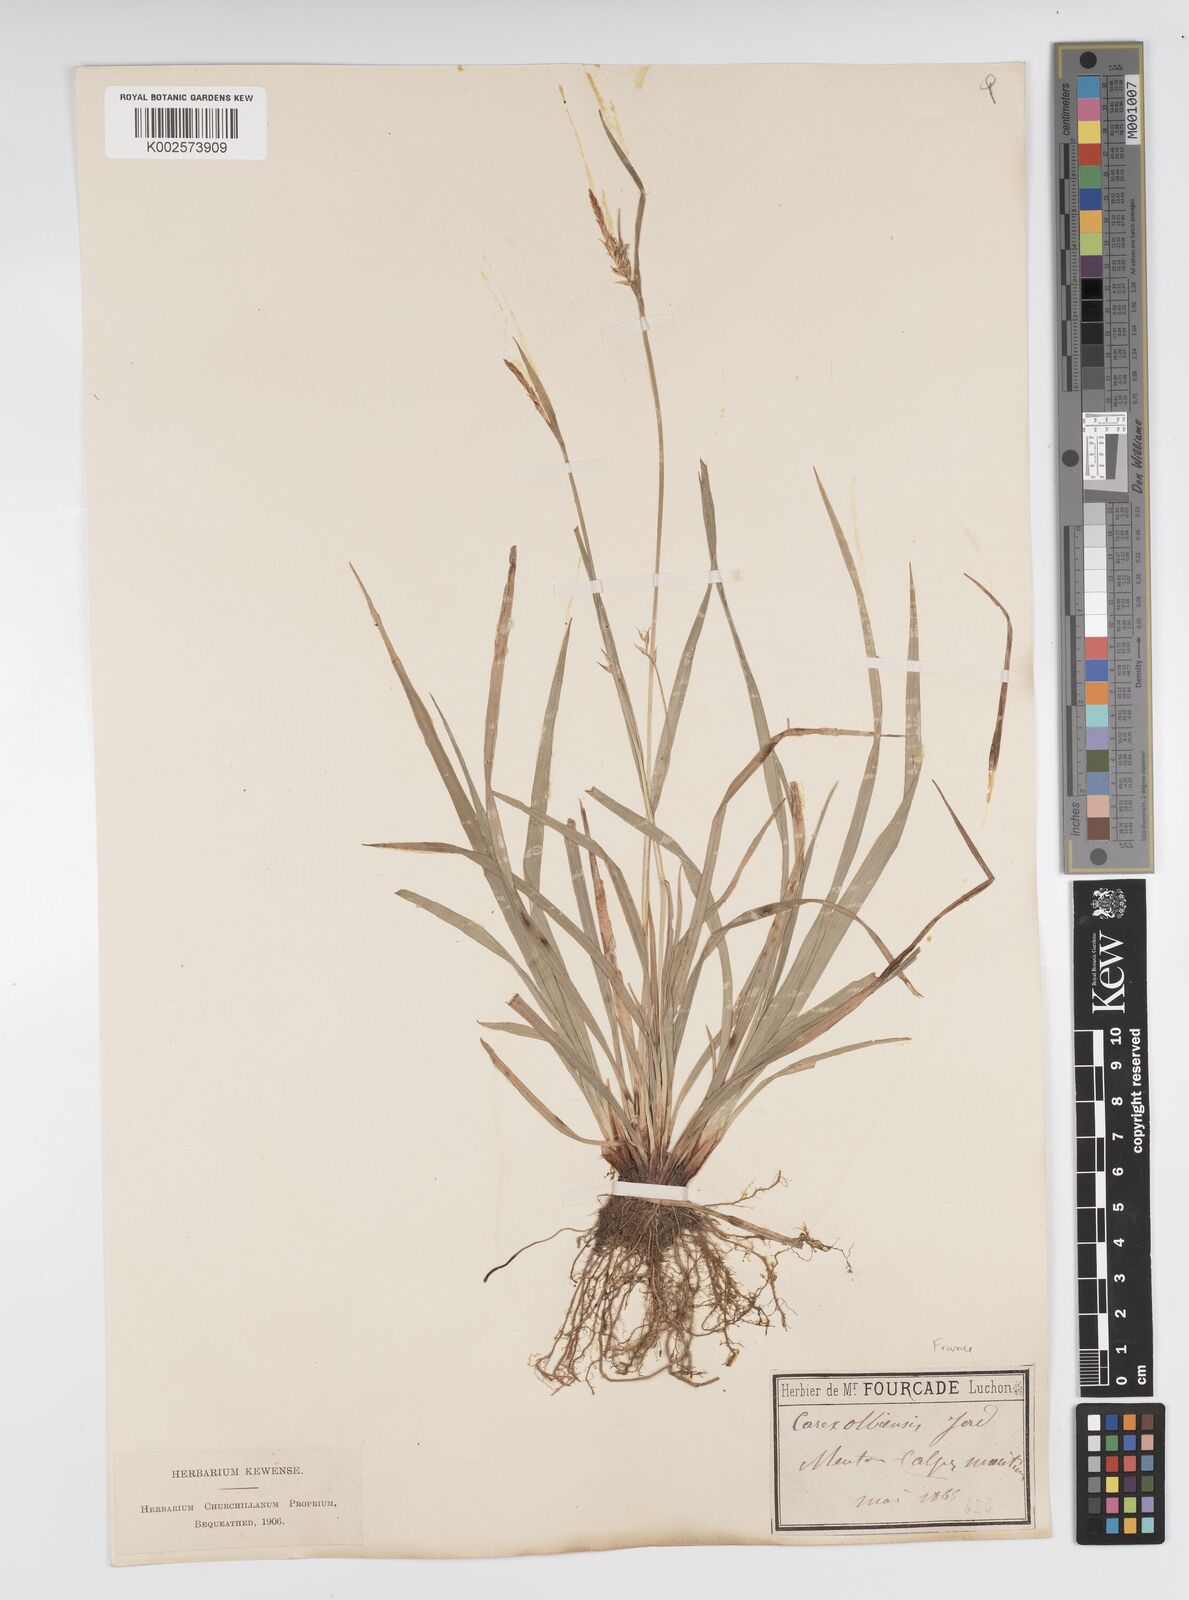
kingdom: Plantae
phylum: Tracheophyta
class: Liliopsida
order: Poales
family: Cyperaceae
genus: Carex
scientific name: Carex olbiensis
